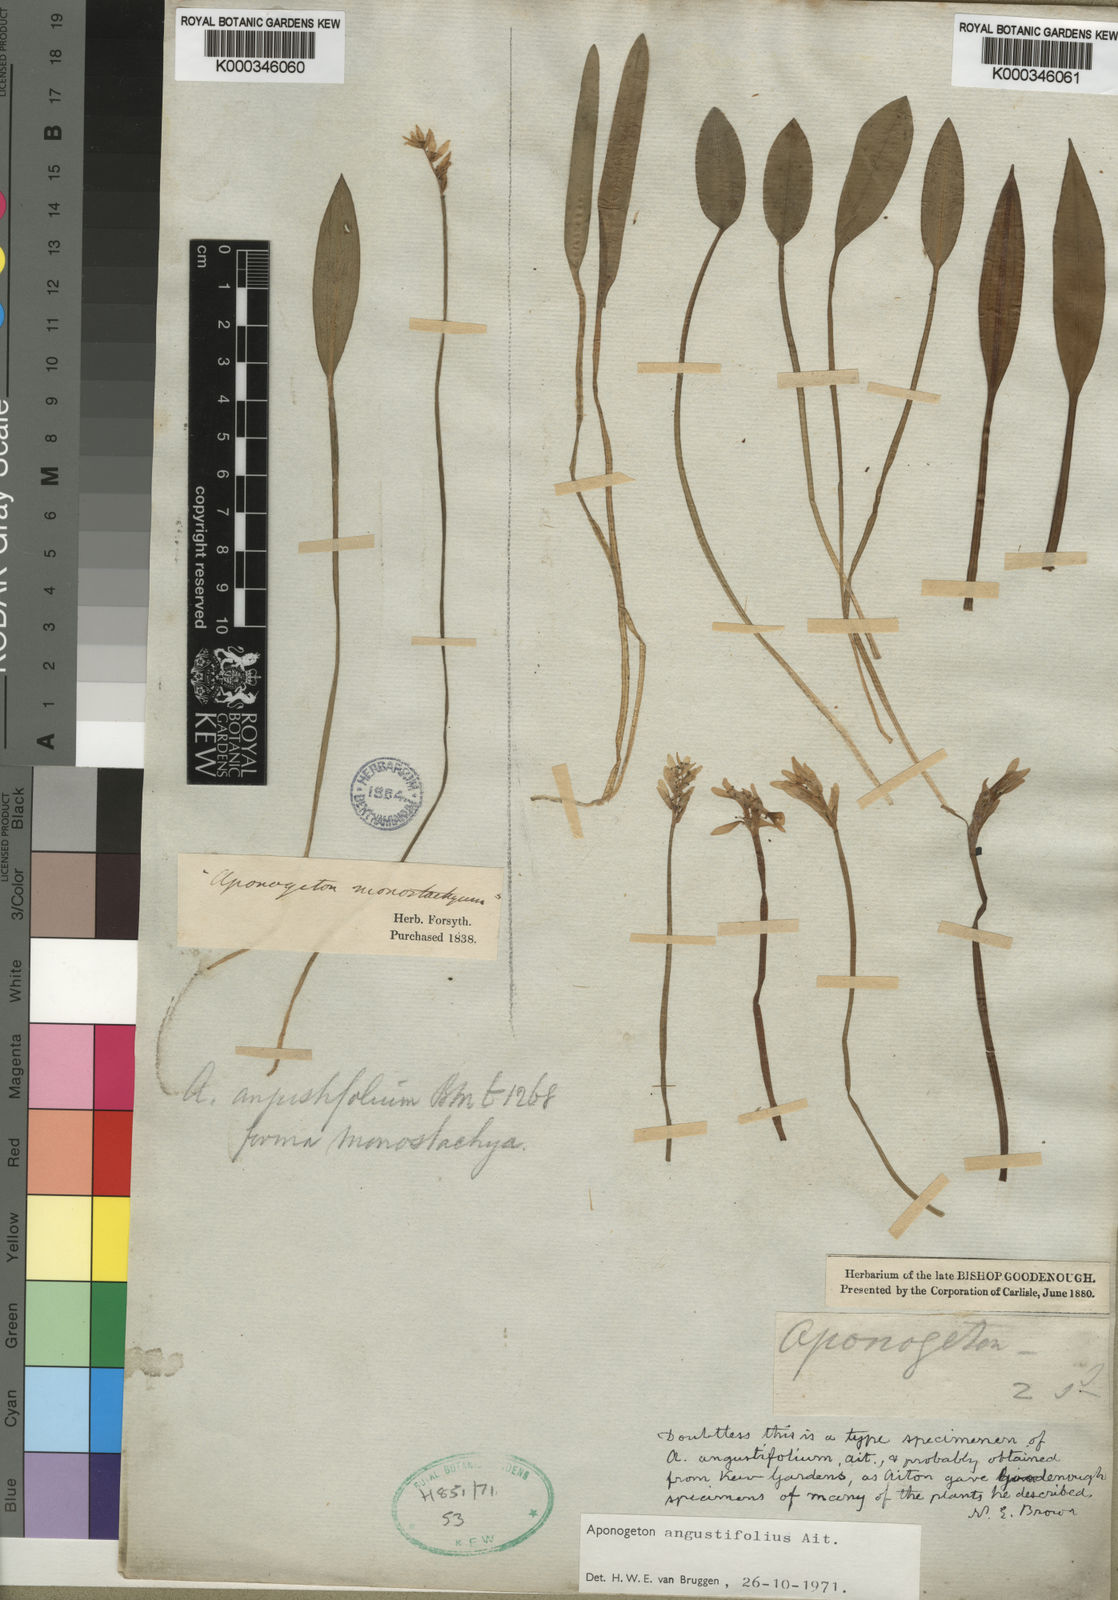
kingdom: Plantae
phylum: Tracheophyta
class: Liliopsida
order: Alismatales
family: Aponogetonaceae
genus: Aponogeton
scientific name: Aponogeton angustifolius
